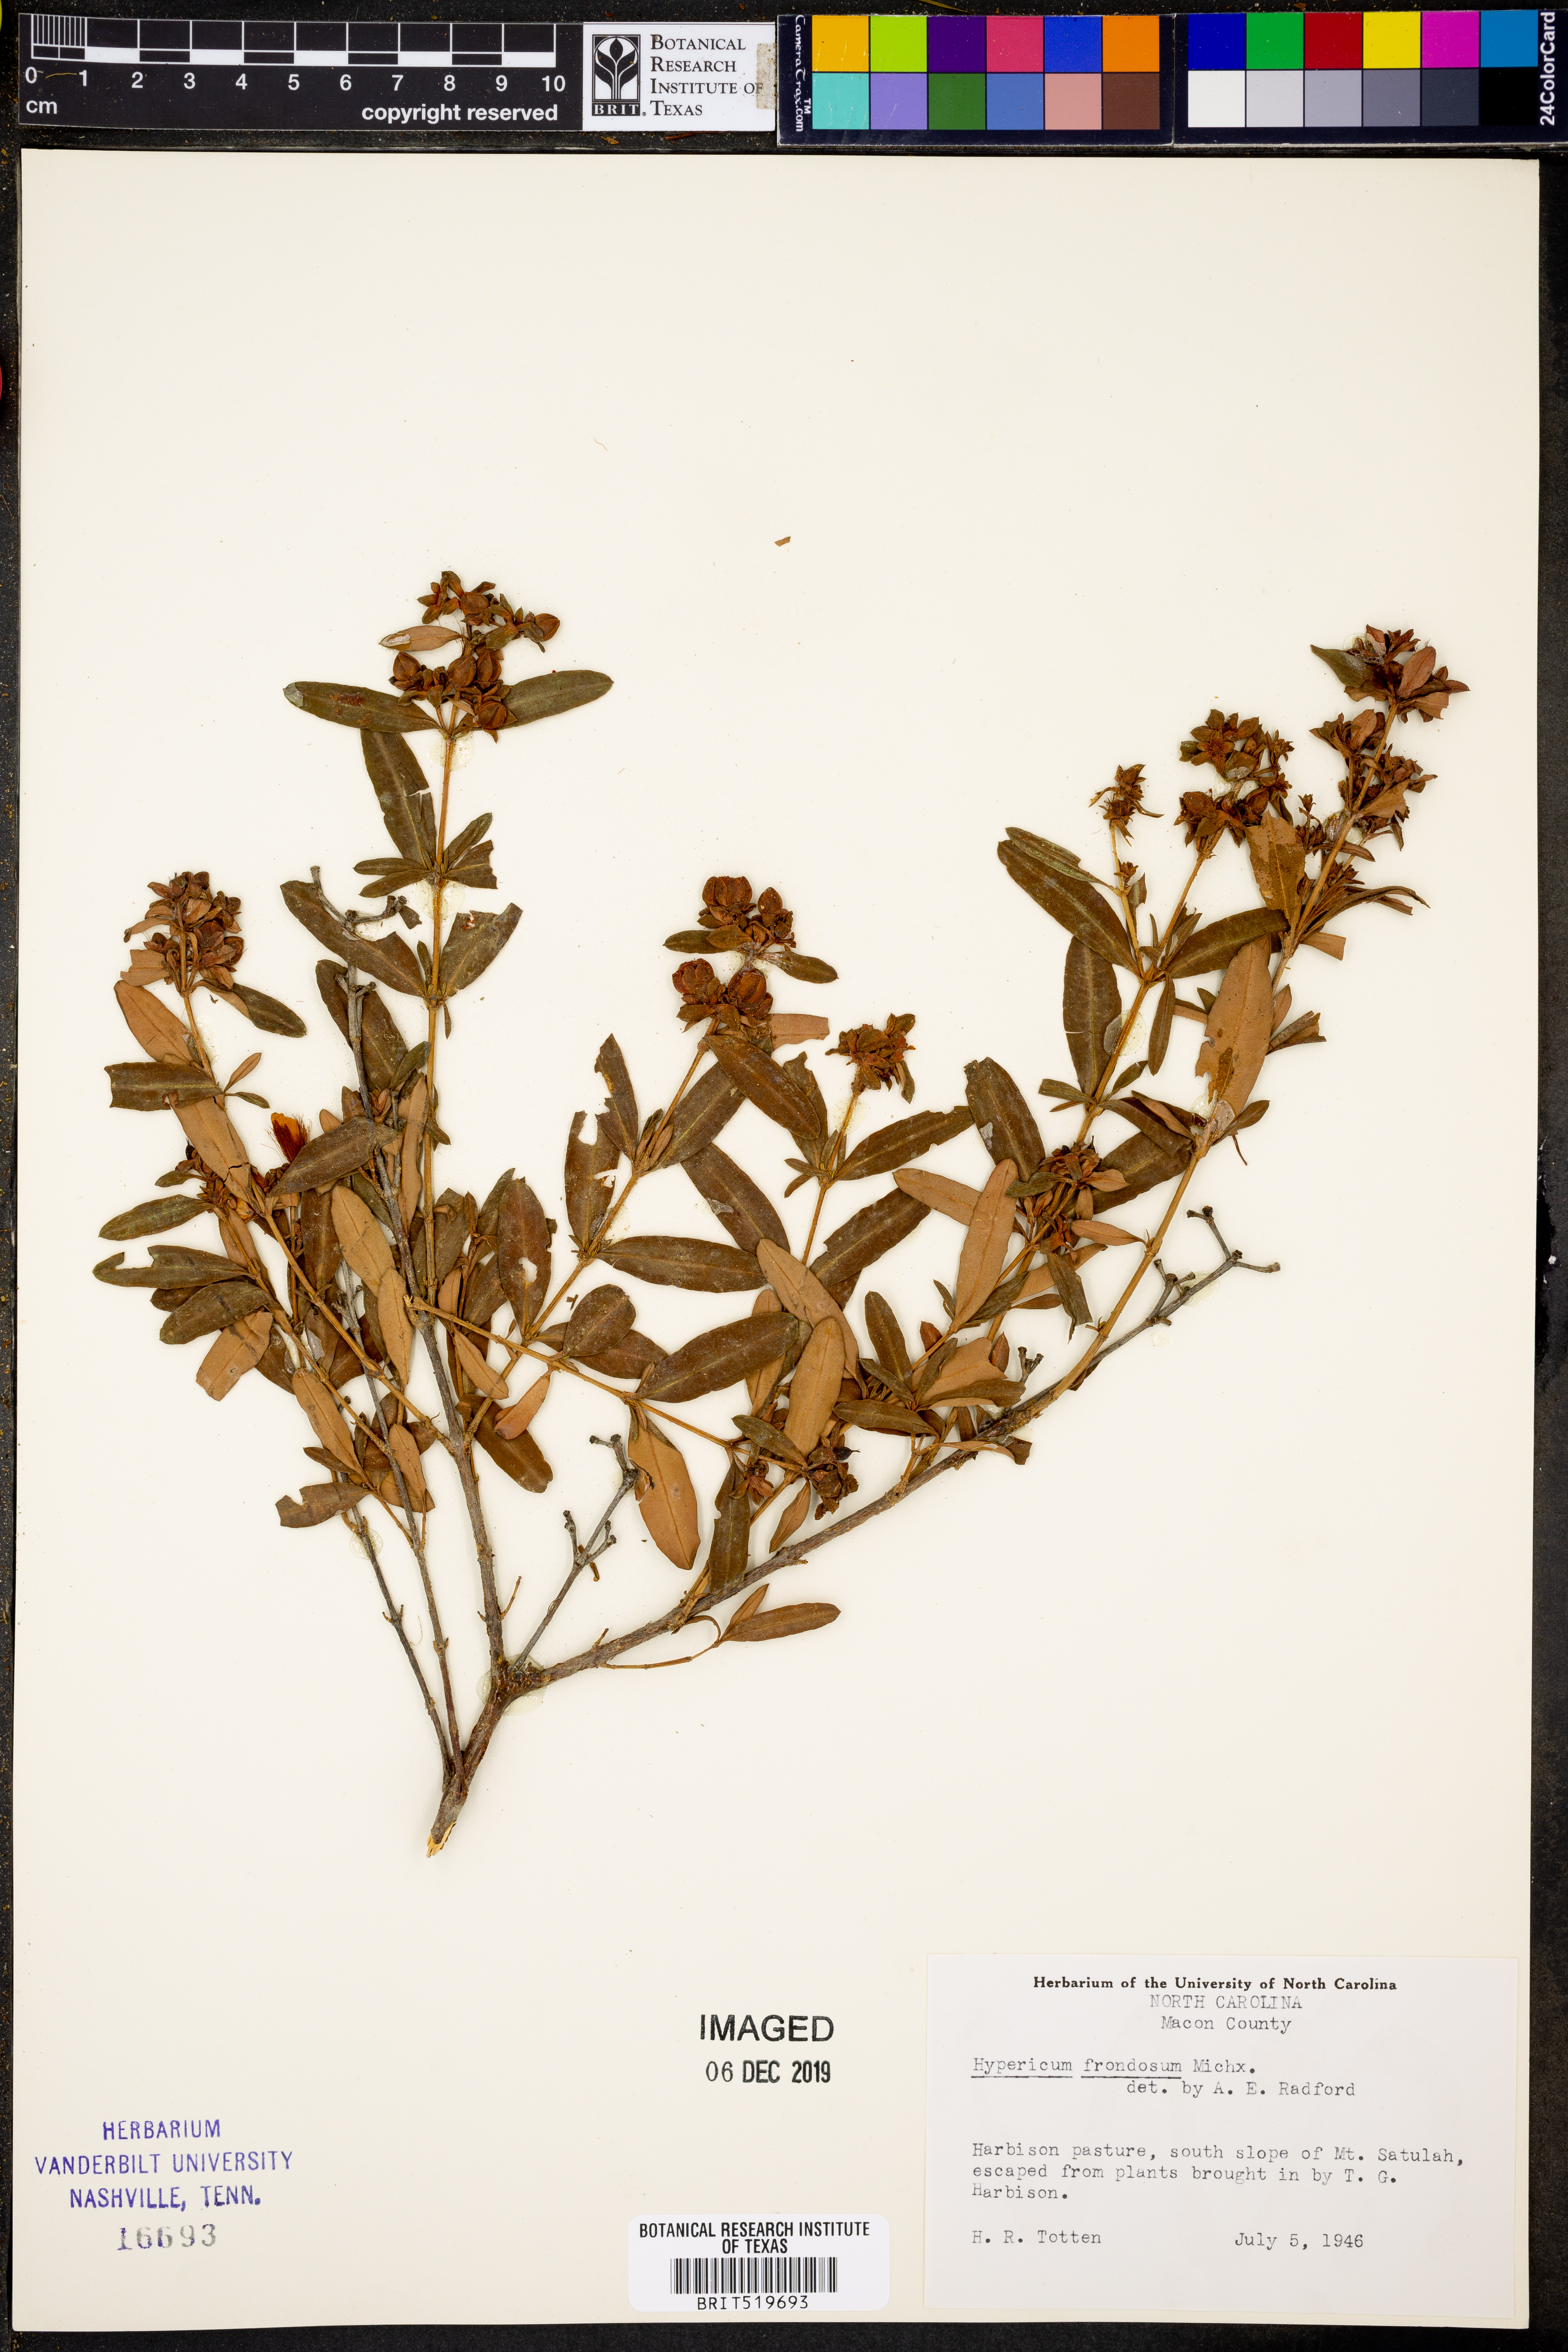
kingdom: Plantae
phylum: Tracheophyta
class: Magnoliopsida
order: Malpighiales
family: Hypericaceae
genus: Hypericum
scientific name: Hypericum frondosum
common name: Golden st. john's-wort
